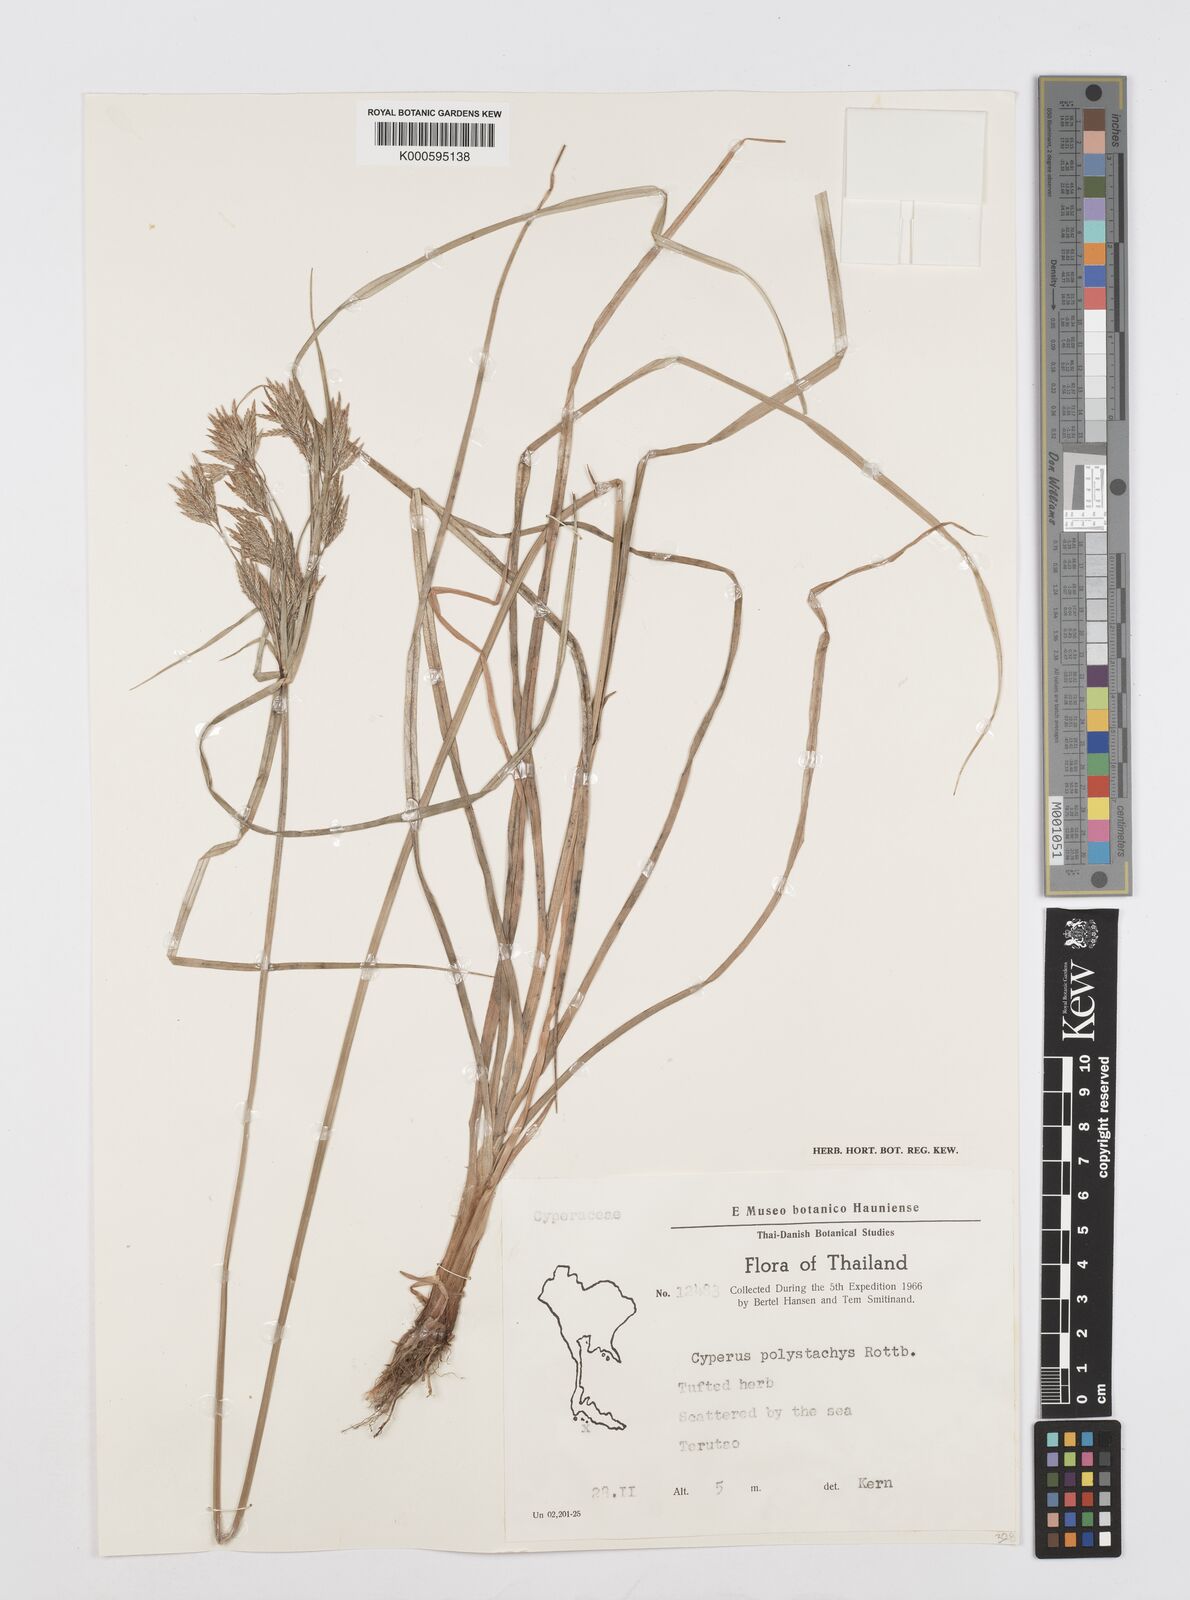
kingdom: Plantae
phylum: Tracheophyta
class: Liliopsida
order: Poales
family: Cyperaceae
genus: Cyperus
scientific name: Cyperus polystachyos
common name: Bunchy flat sedge
